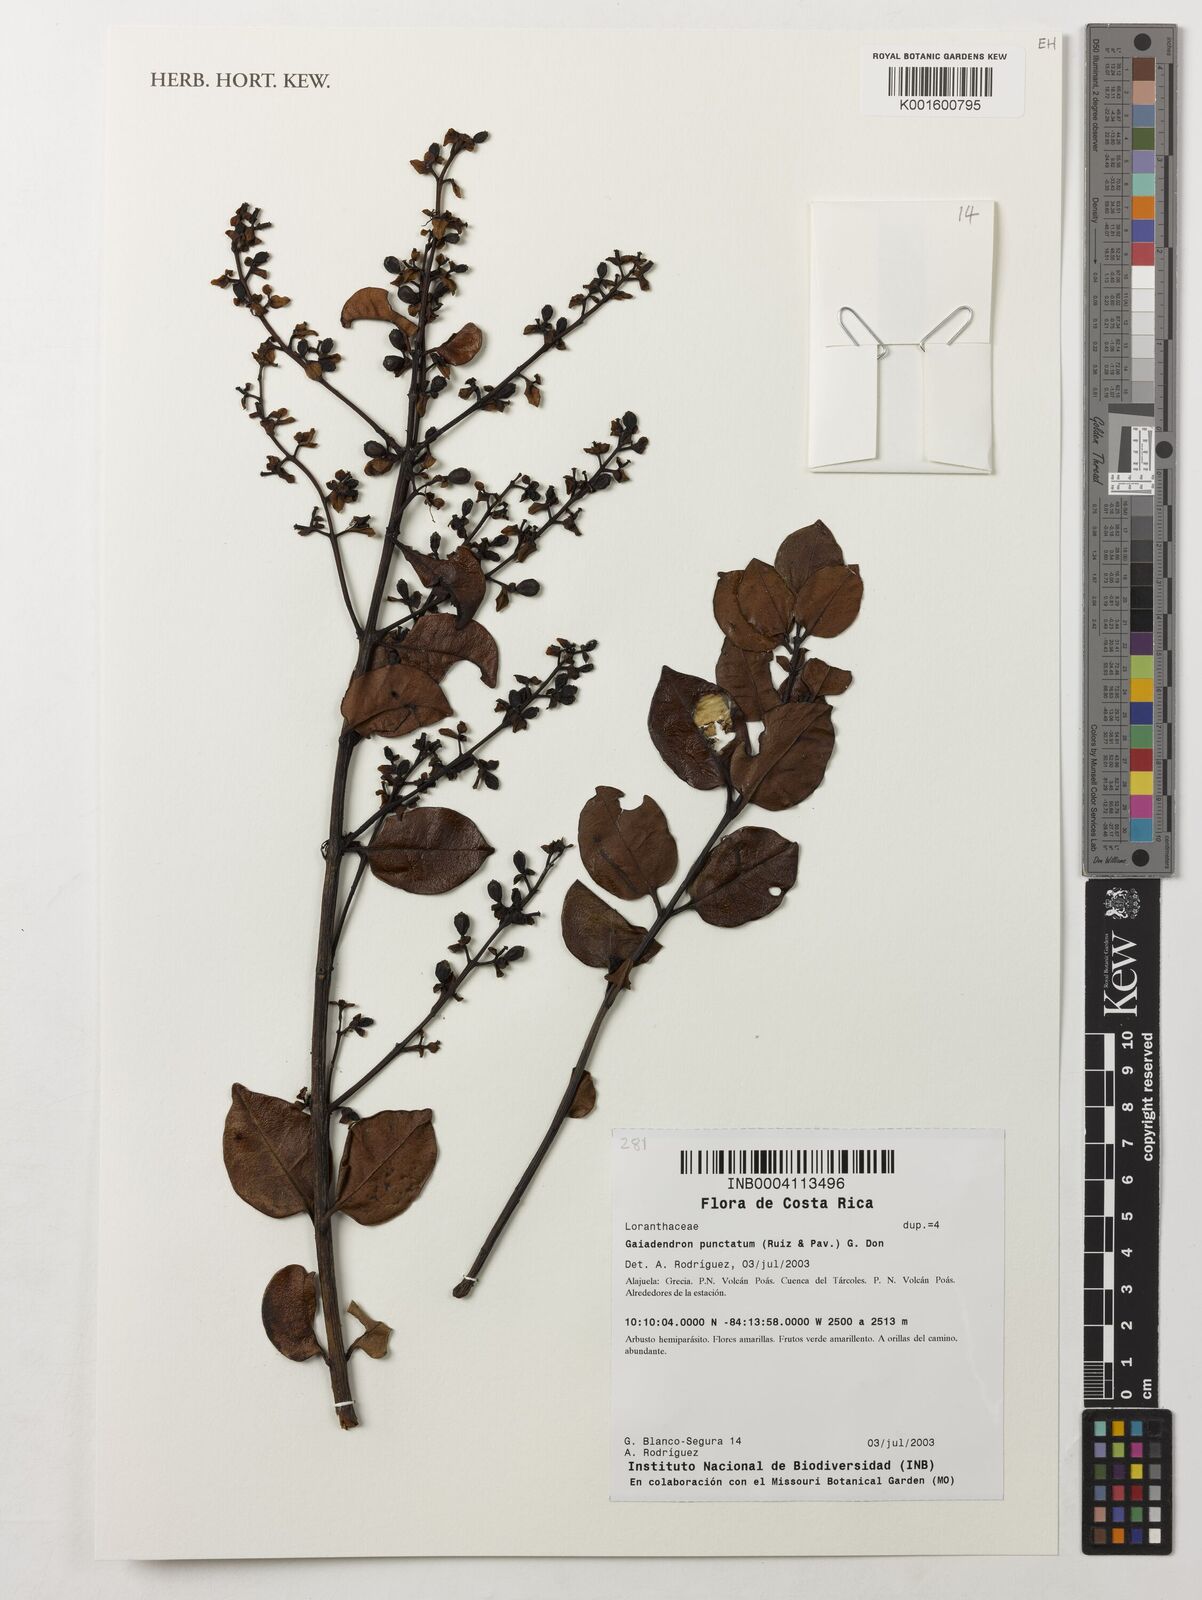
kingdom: Plantae
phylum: Tracheophyta
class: Magnoliopsida
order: Santalales
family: Loranthaceae
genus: Gaiadendron
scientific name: Gaiadendron punctatum
